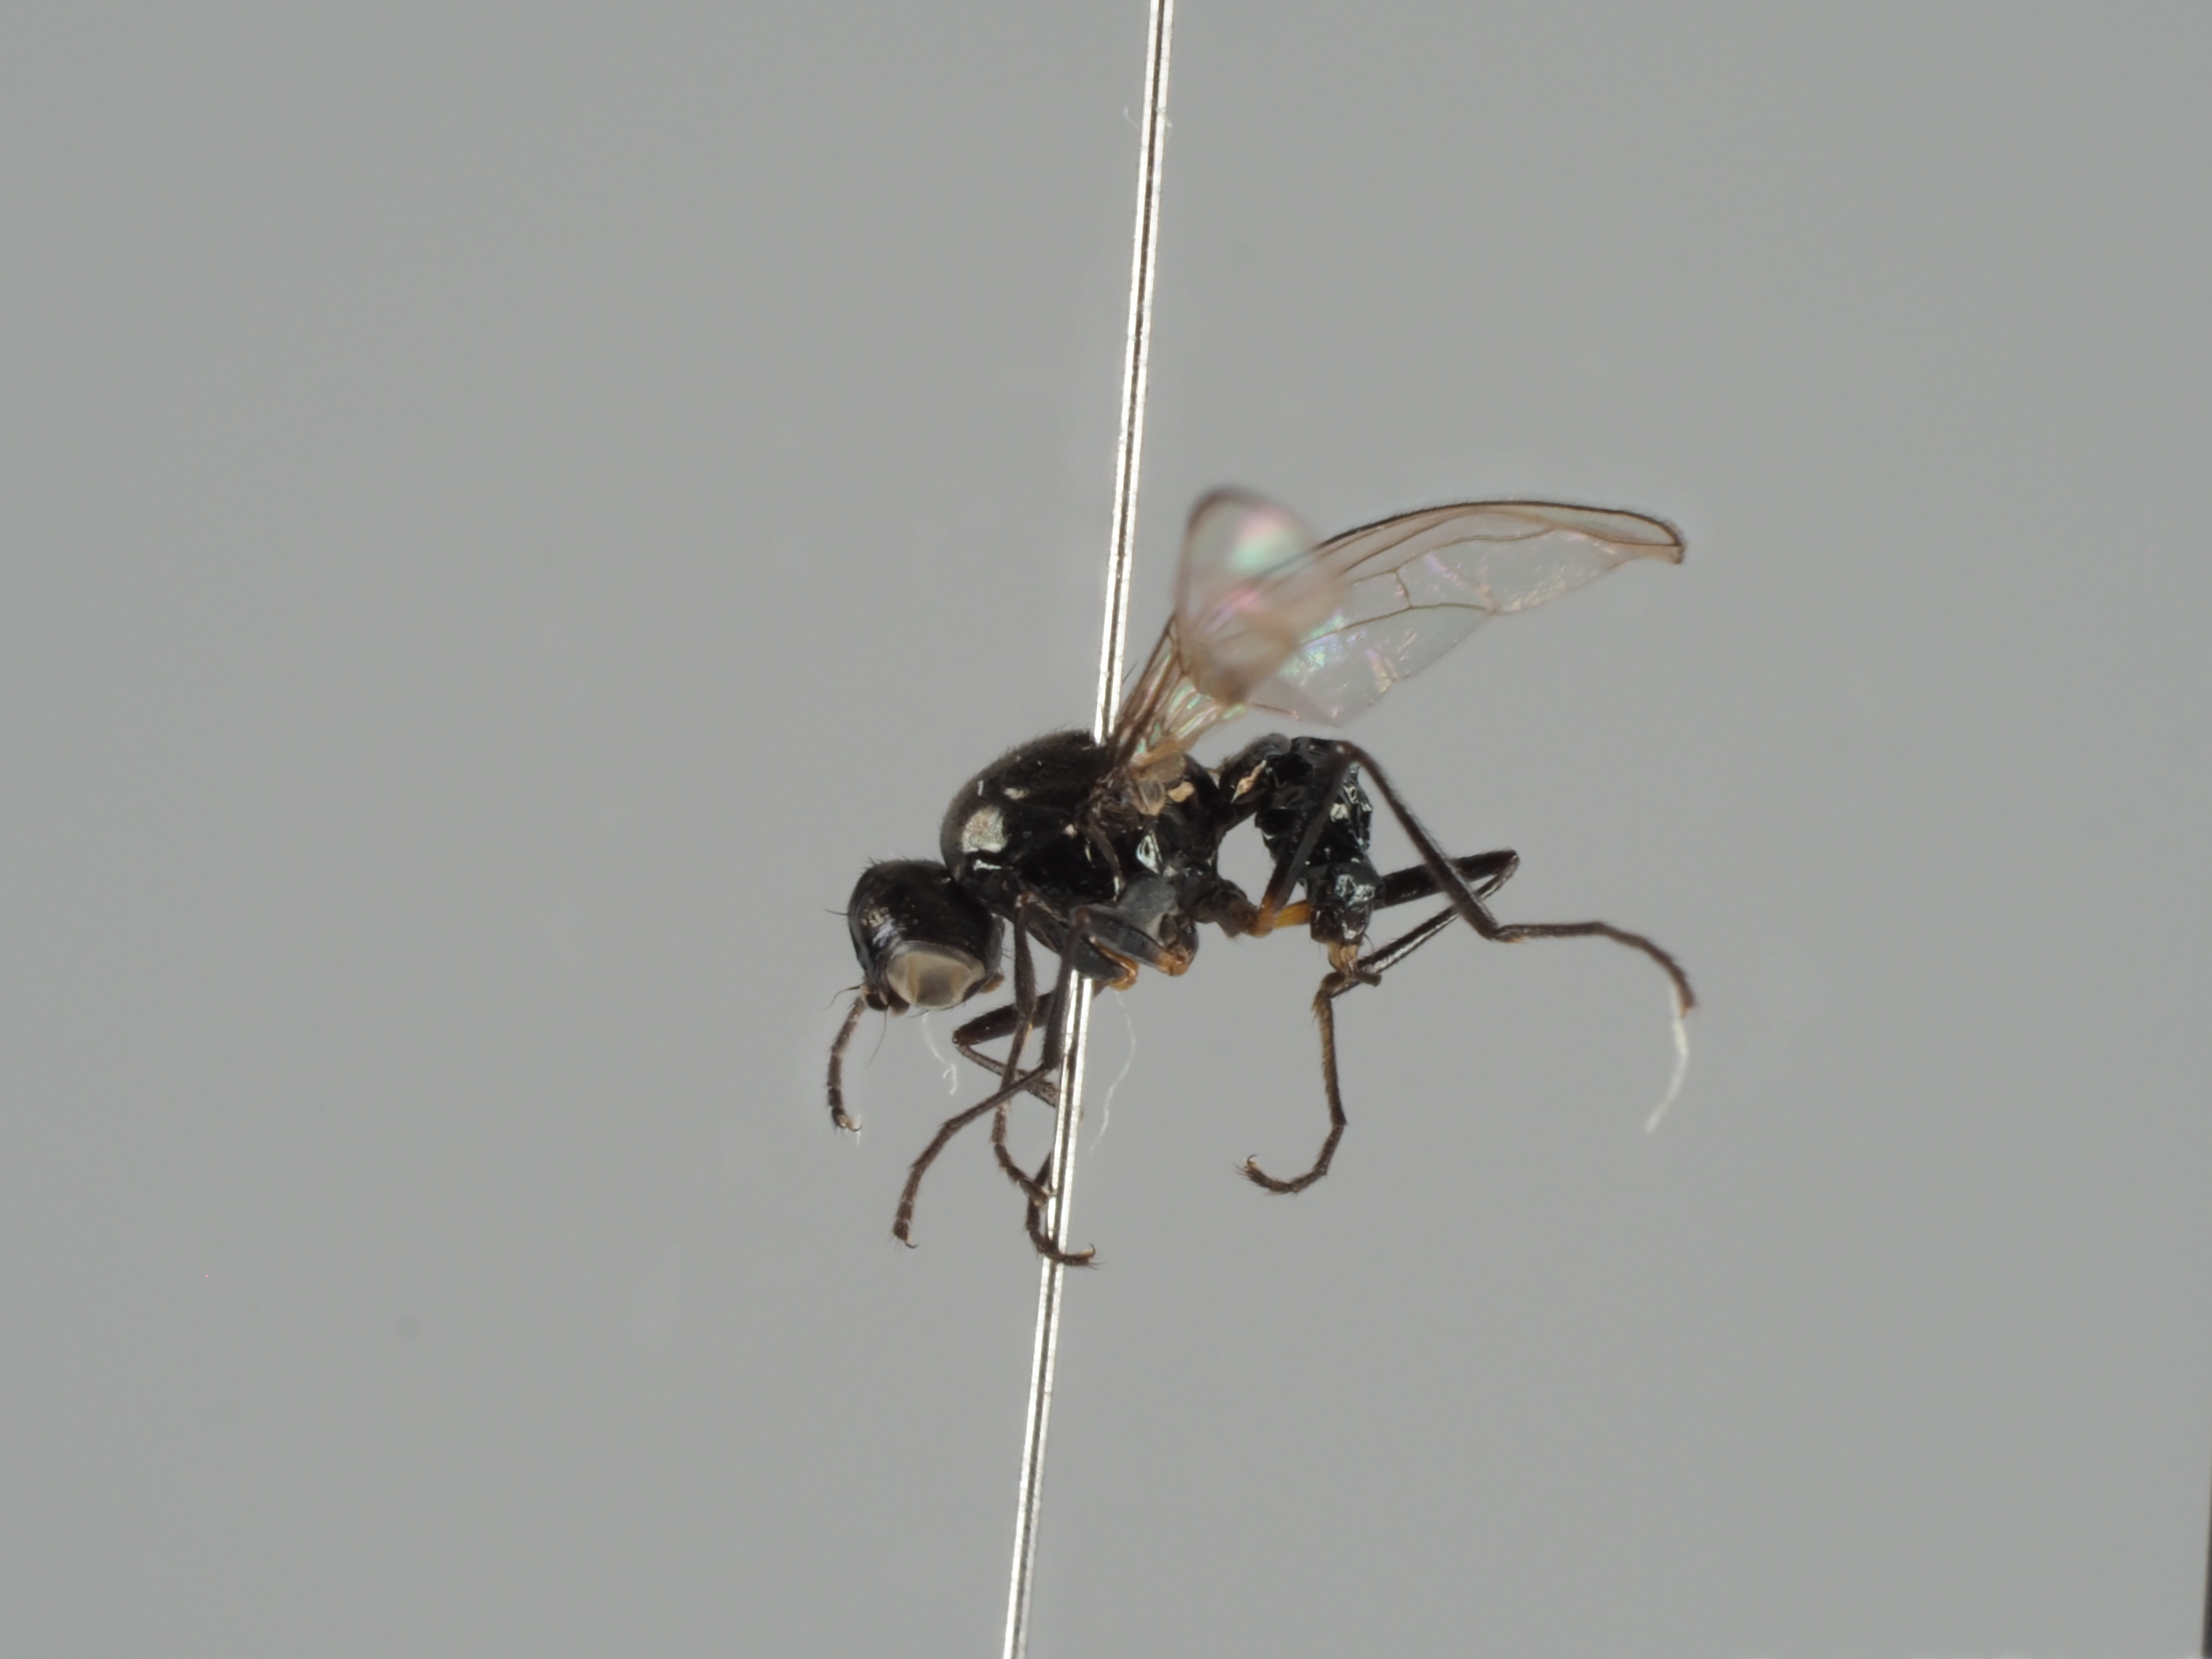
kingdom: Animalia
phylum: Arthropoda
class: Insecta
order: Diptera
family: Sepsidae
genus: Themira
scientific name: Themira minor
